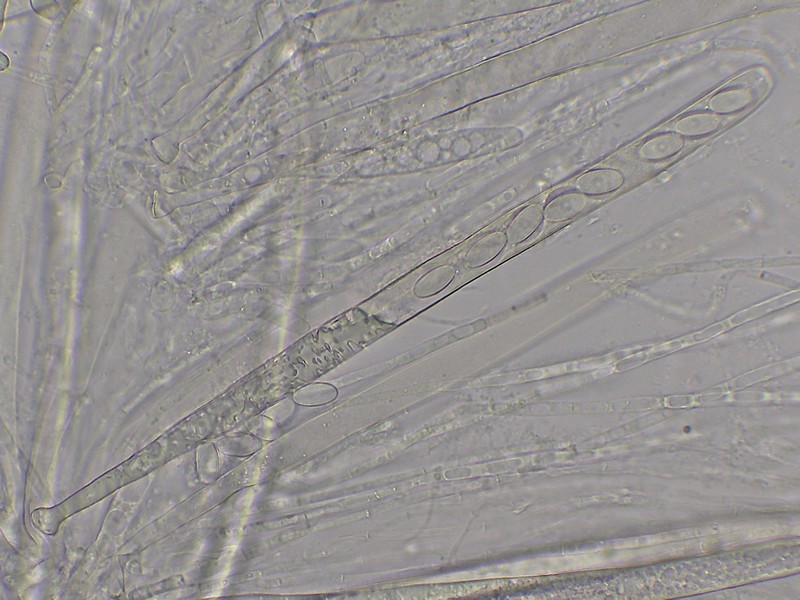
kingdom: Fungi
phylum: Ascomycota
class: Pezizomycetes
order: Pezizales
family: Pezizaceae
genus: Peziza
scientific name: Peziza
